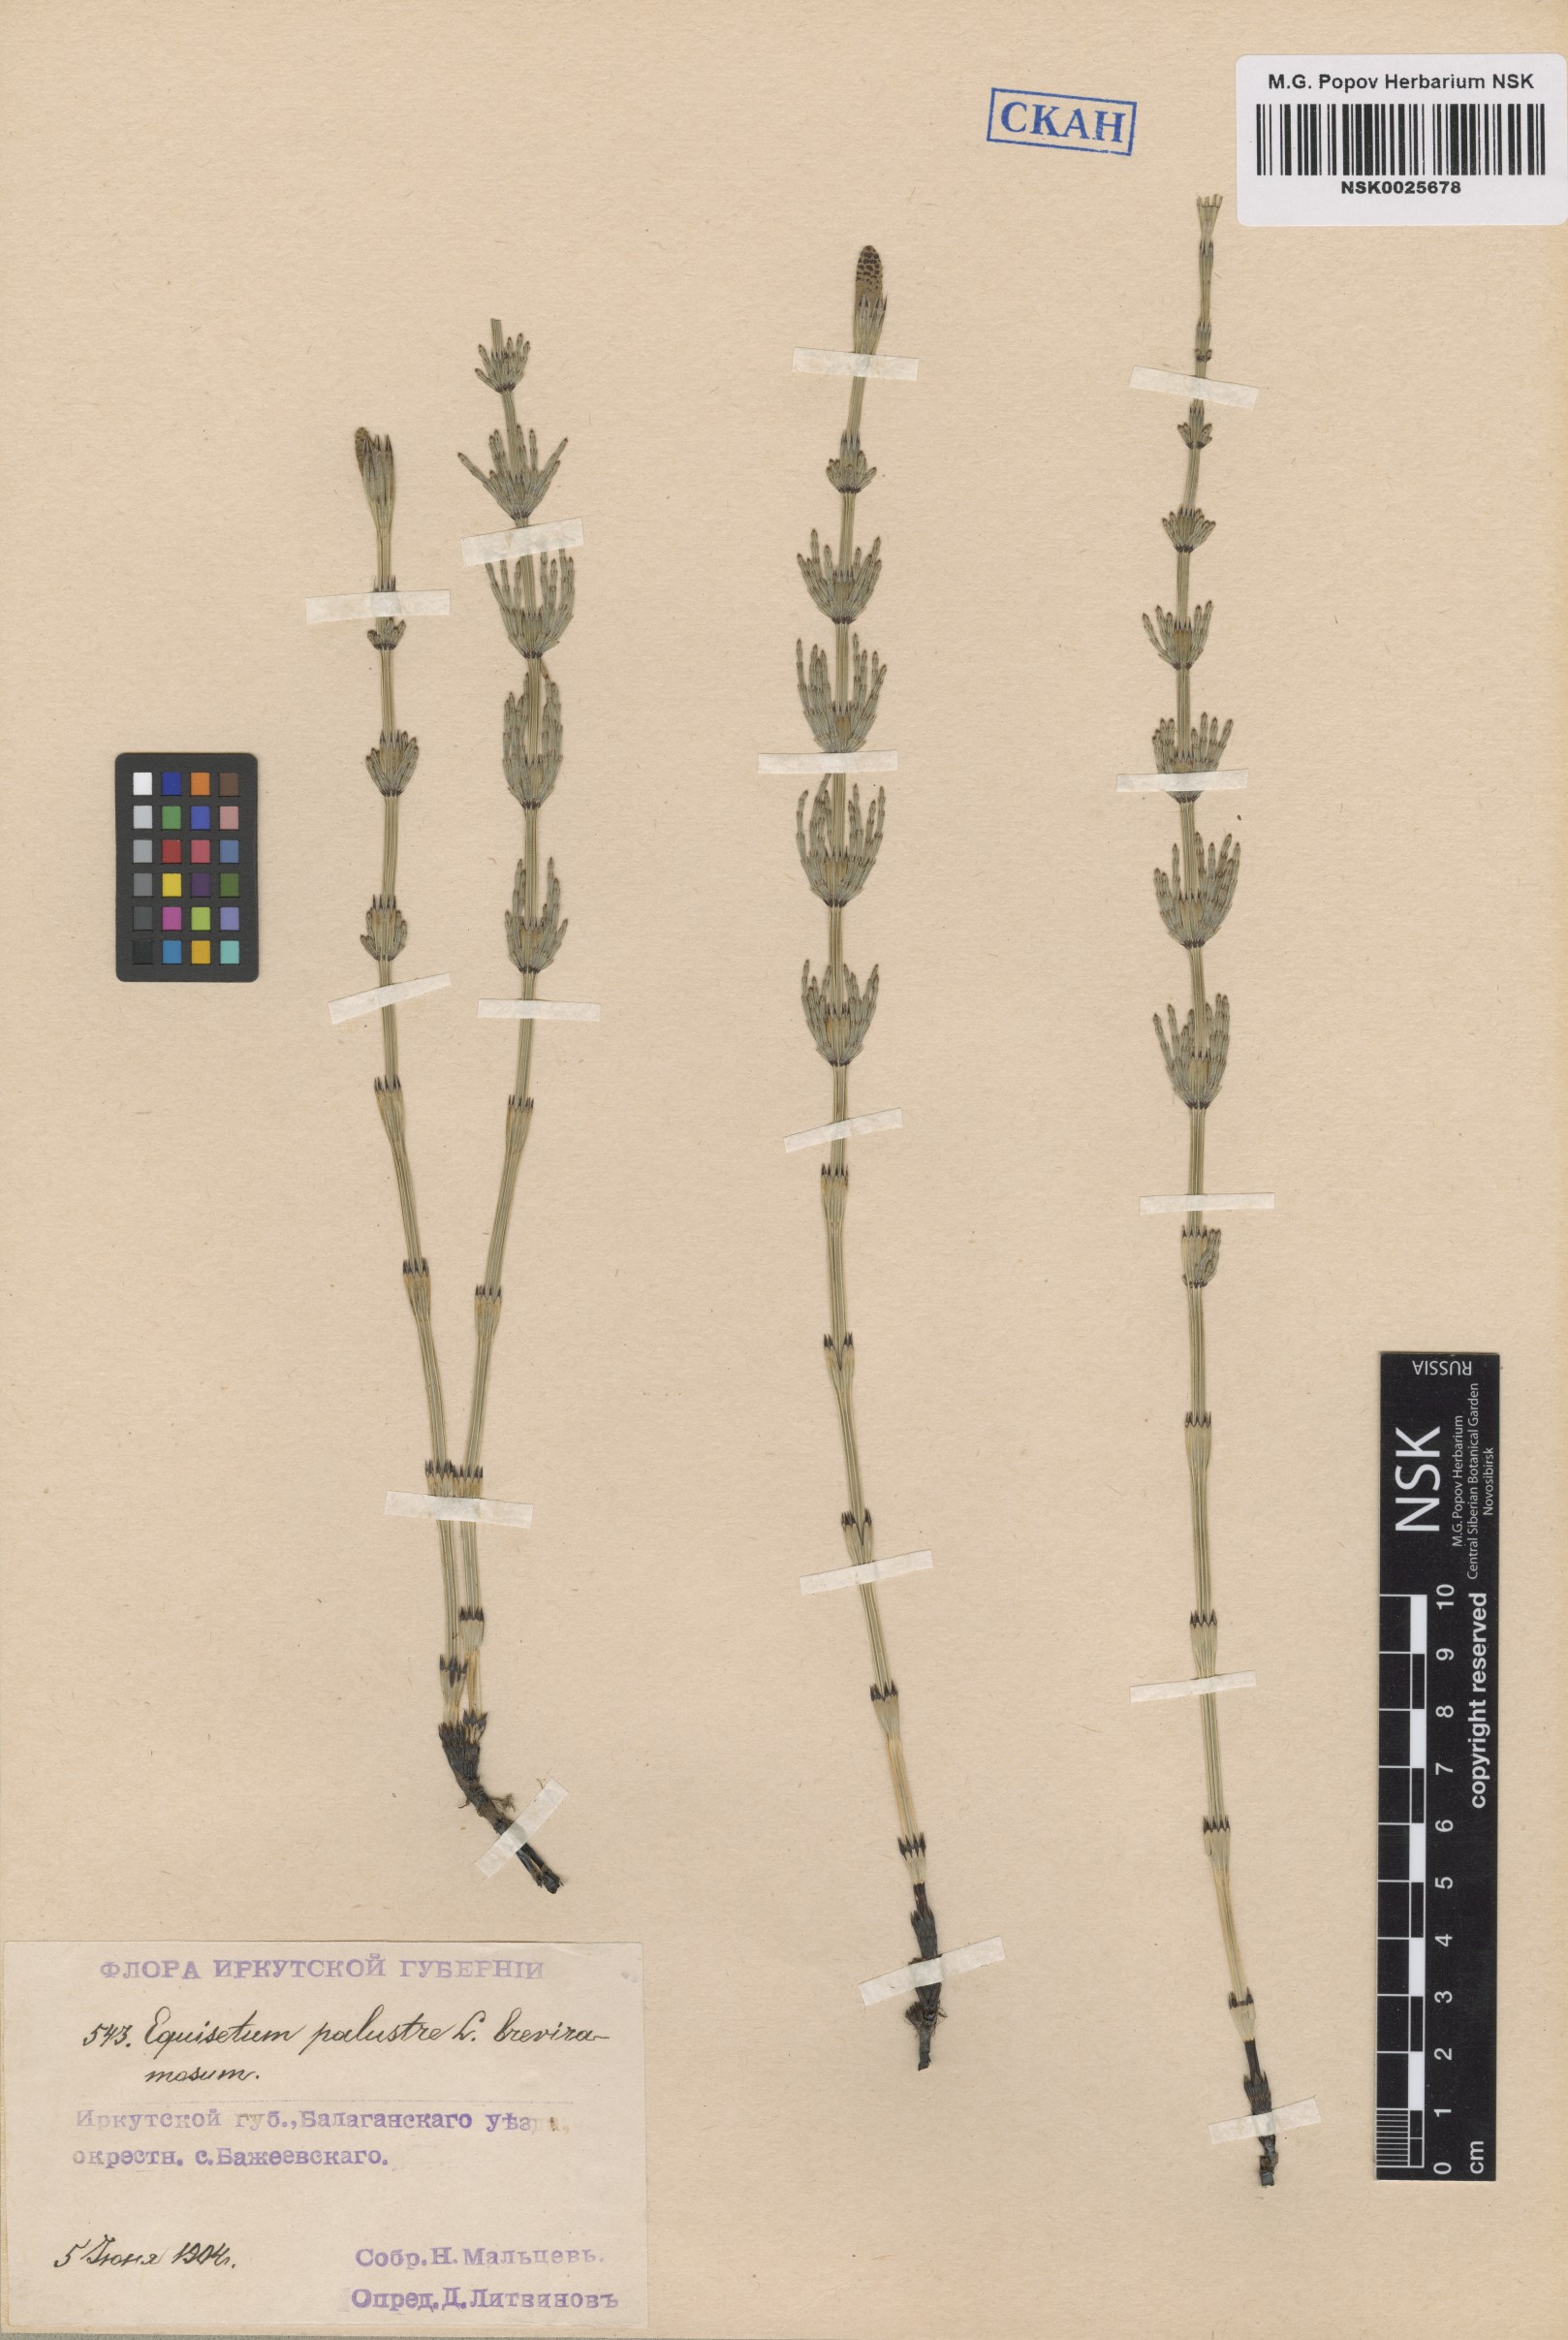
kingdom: Plantae
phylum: Tracheophyta
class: Polypodiopsida
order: Equisetales
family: Equisetaceae
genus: Equisetum
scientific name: Equisetum palustre
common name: Marsh horsetail
